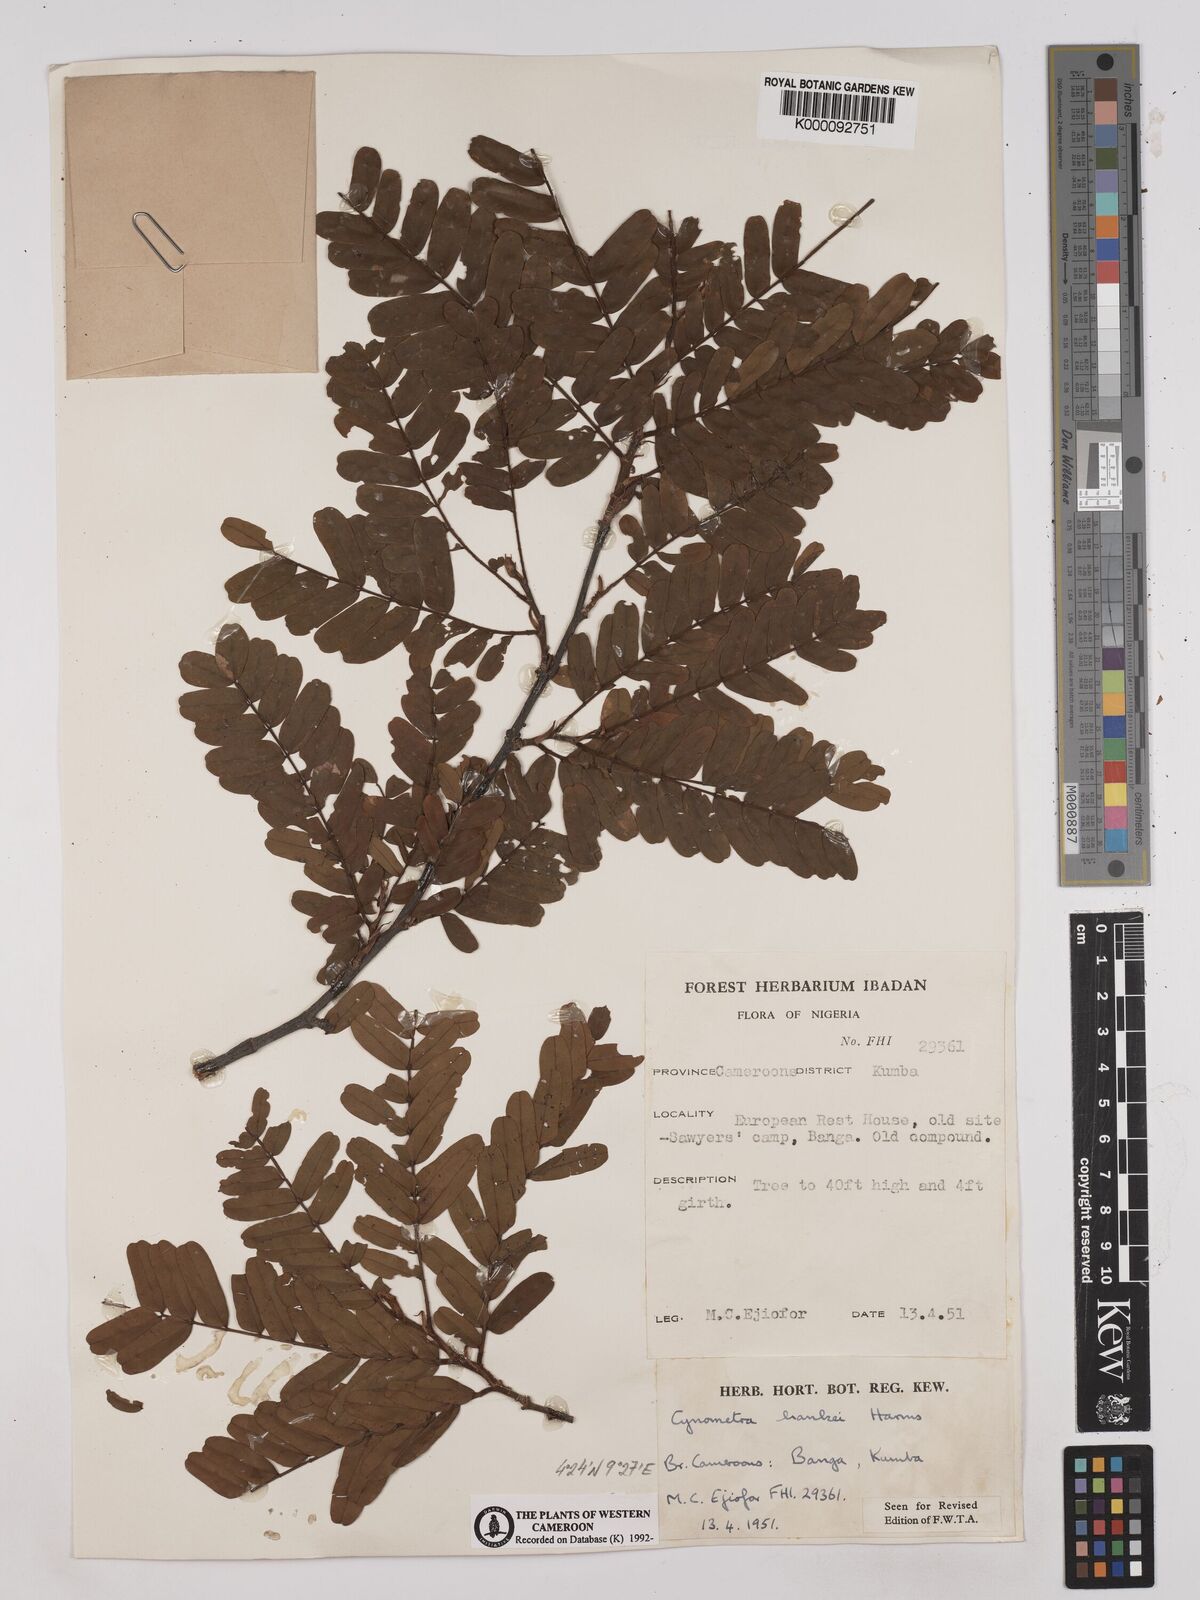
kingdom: Plantae
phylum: Tracheophyta
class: Magnoliopsida
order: Fabales
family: Fabaceae
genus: Cynometra
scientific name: Cynometra hankei
